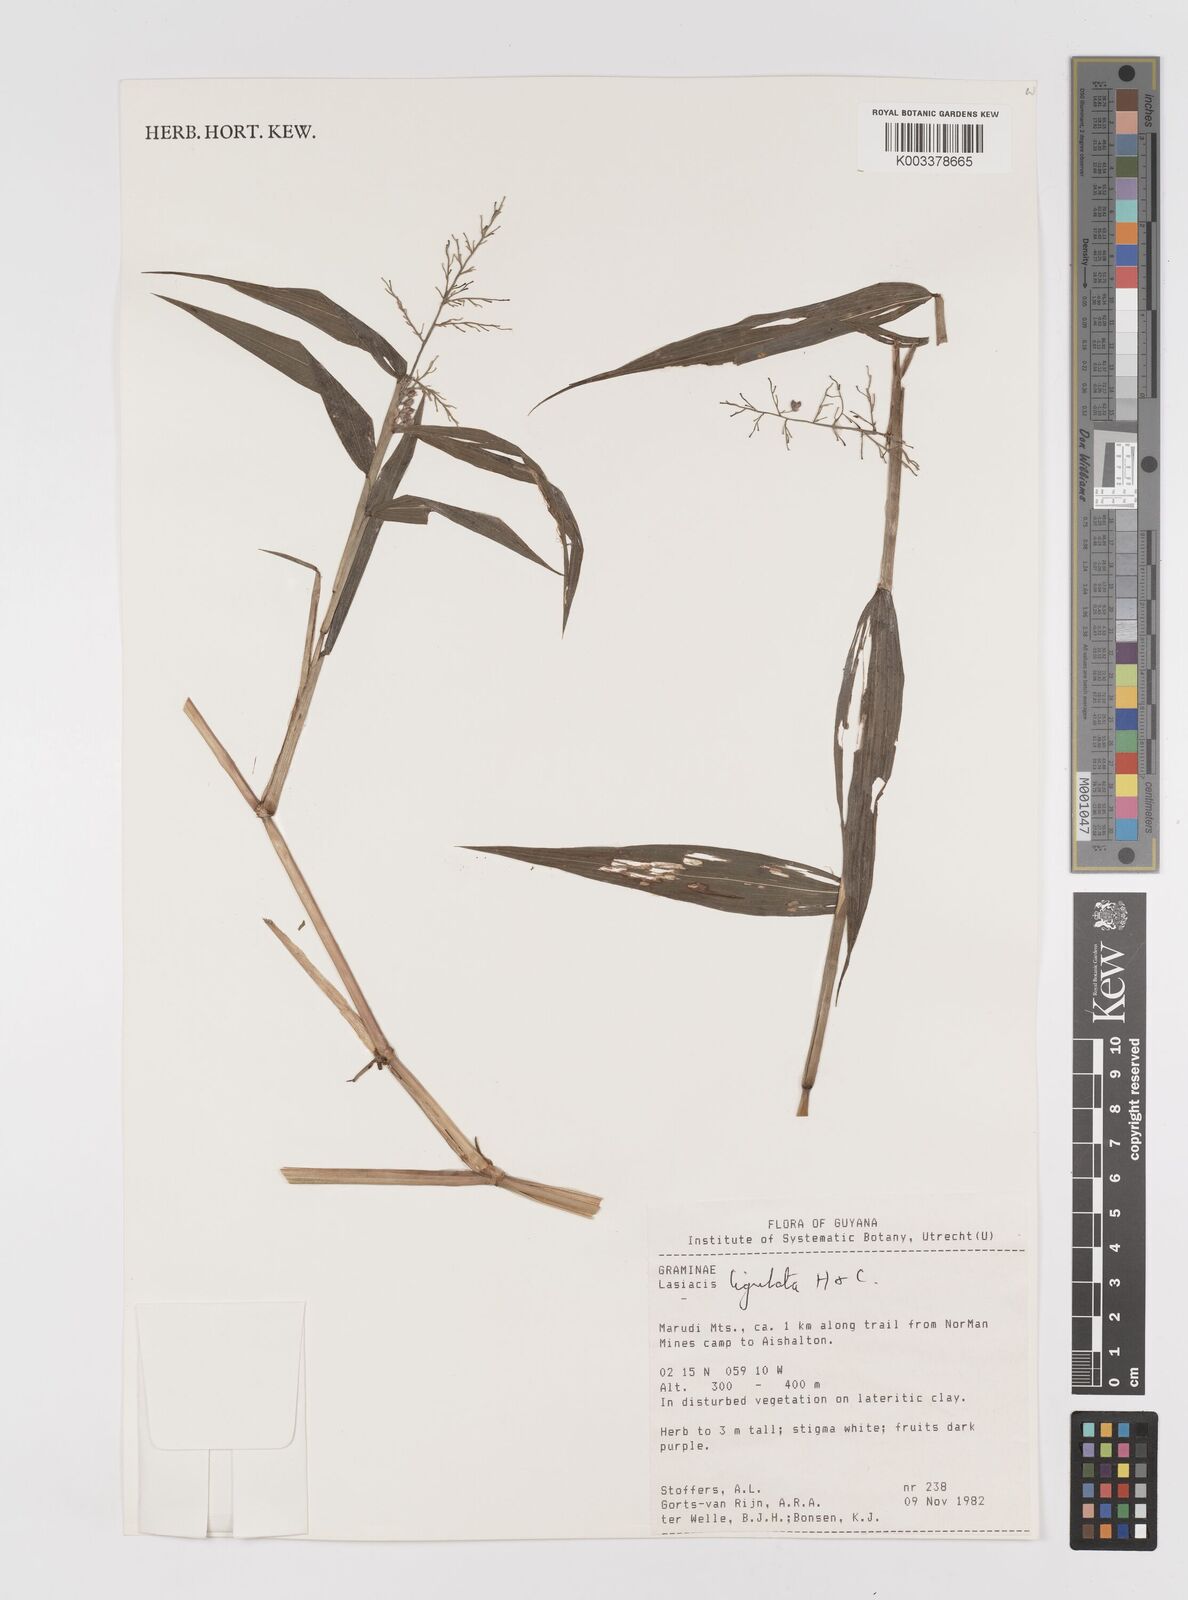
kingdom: Plantae
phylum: Tracheophyta
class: Liliopsida
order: Poales
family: Poaceae
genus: Lasiacis
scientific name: Lasiacis ligulata
